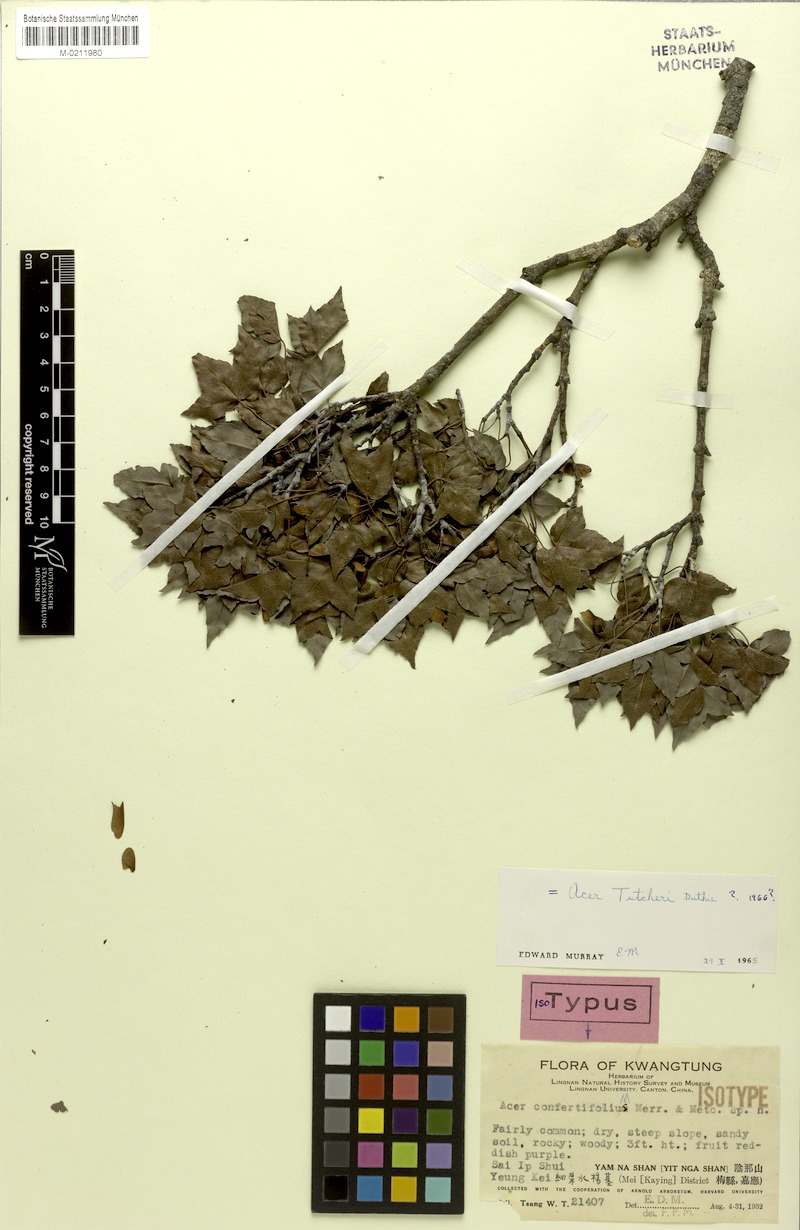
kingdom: Plantae
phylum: Tracheophyta
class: Magnoliopsida
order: Sapindales
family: Sapindaceae
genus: Acer
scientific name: Acer tutcheri
